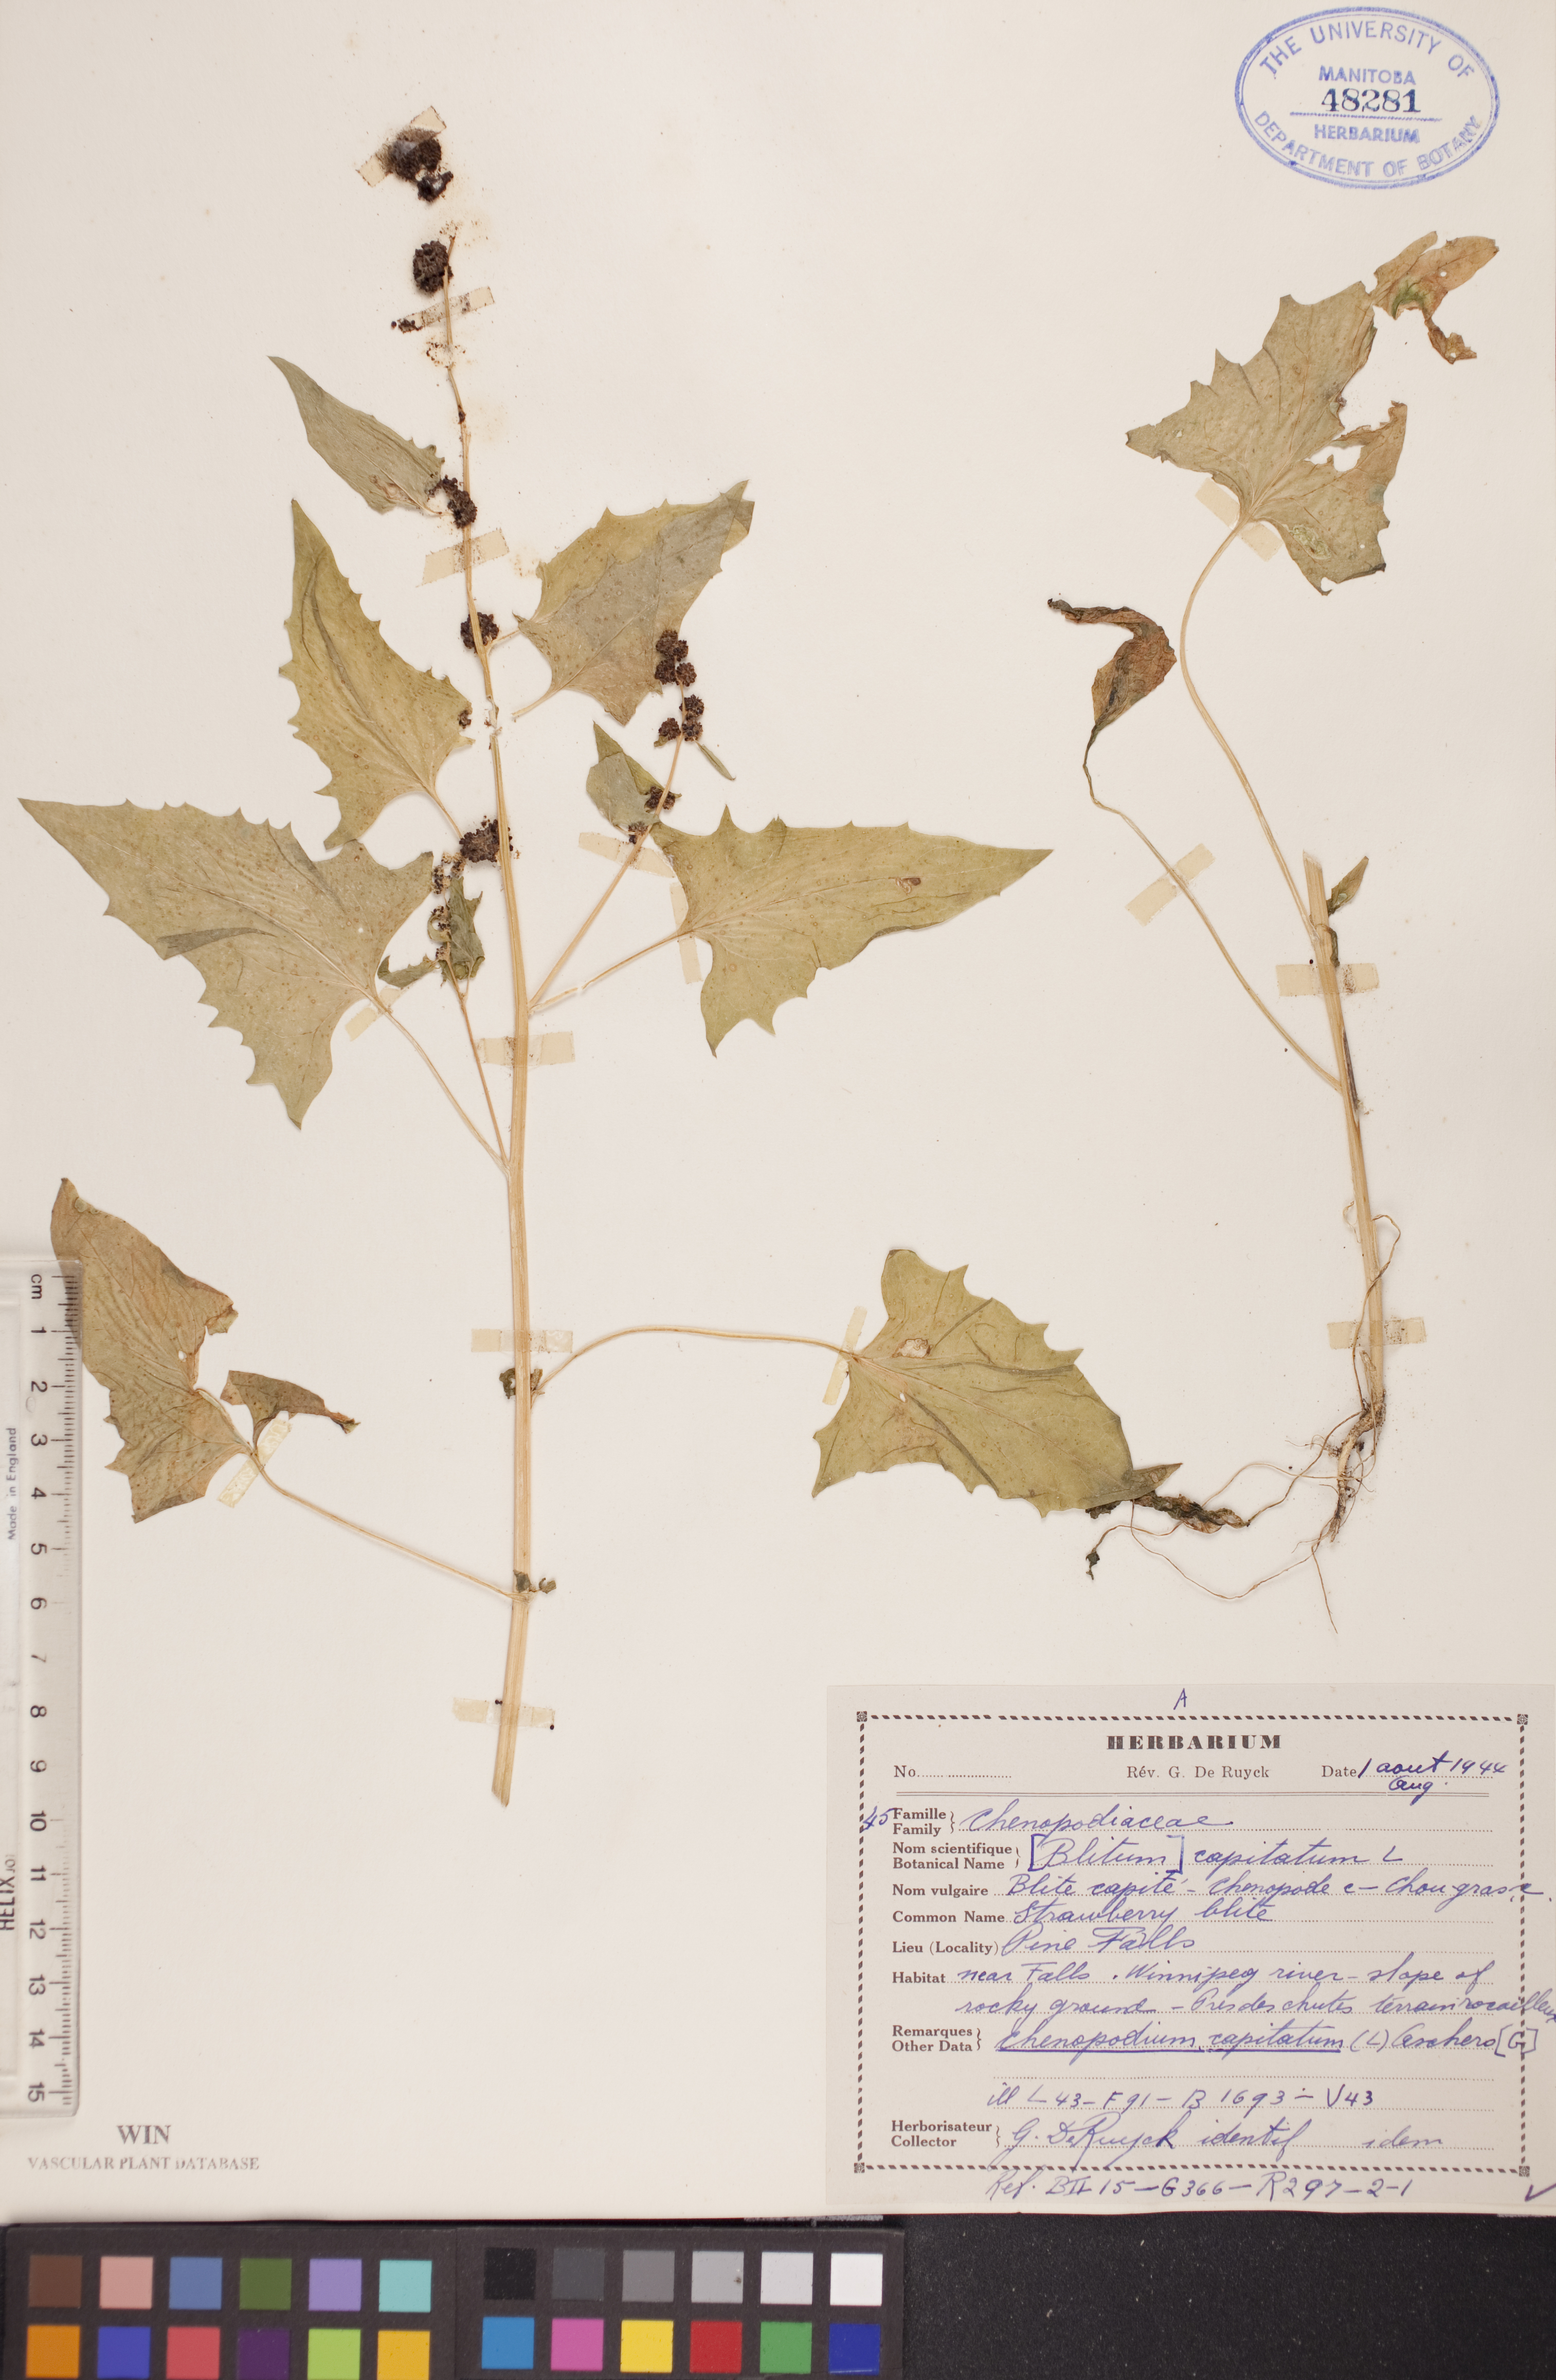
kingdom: Plantae
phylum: Tracheophyta
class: Magnoliopsida
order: Caryophyllales
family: Amaranthaceae
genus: Blitum
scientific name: Blitum capitatum
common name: Strawberry-blight
